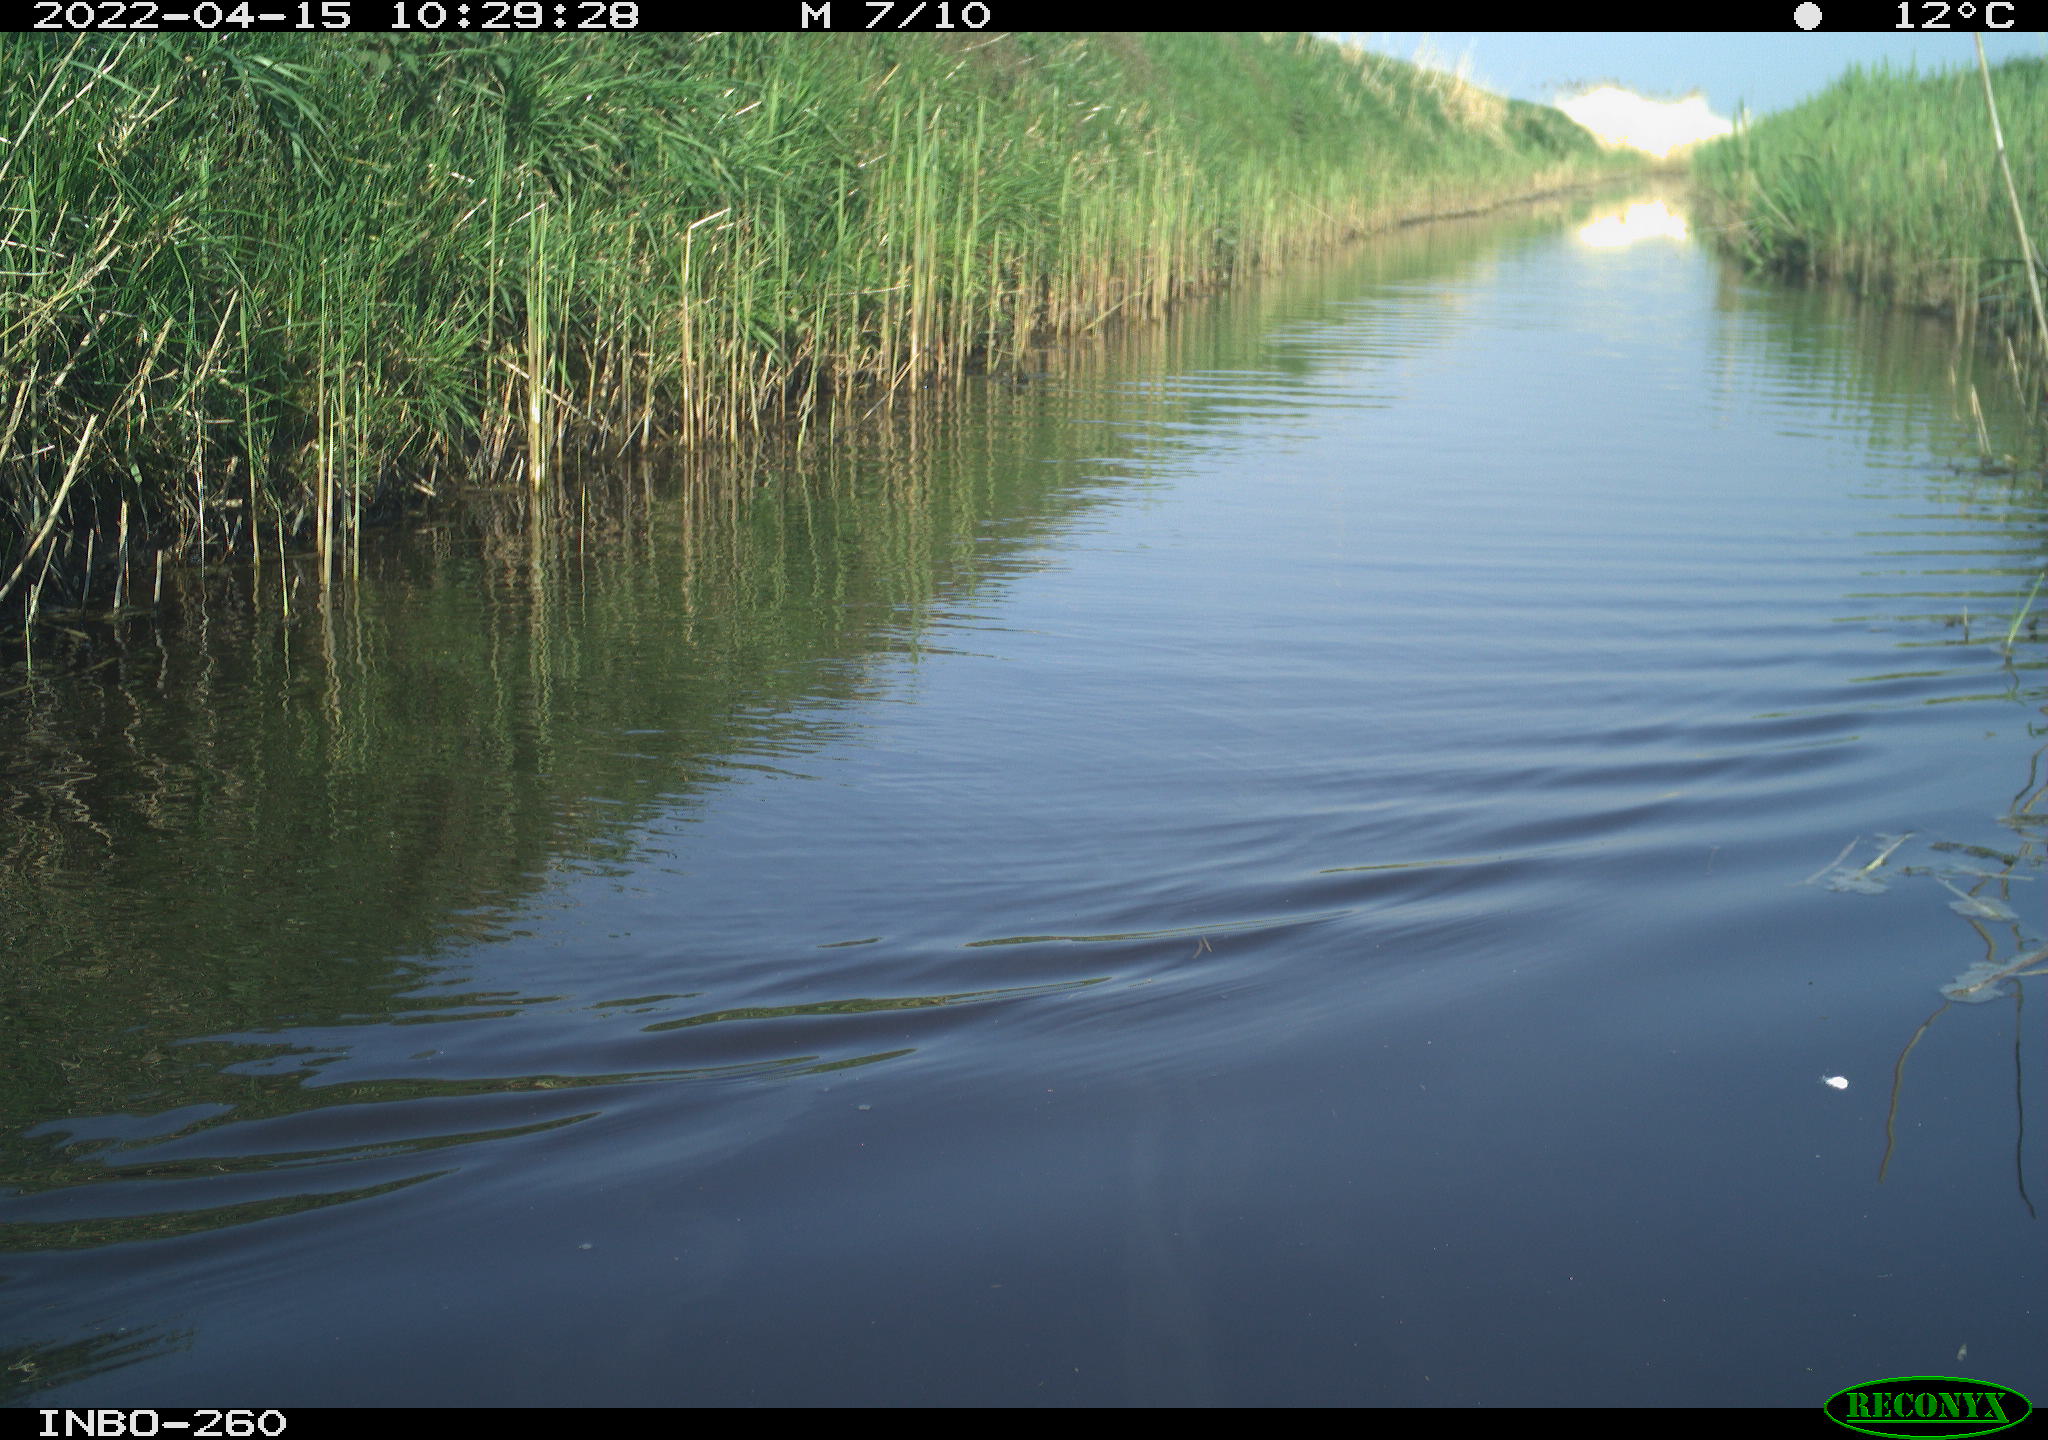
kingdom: Animalia
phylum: Chordata
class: Aves
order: Gruiformes
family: Rallidae
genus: Fulica
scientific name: Fulica atra
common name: Eurasian coot
